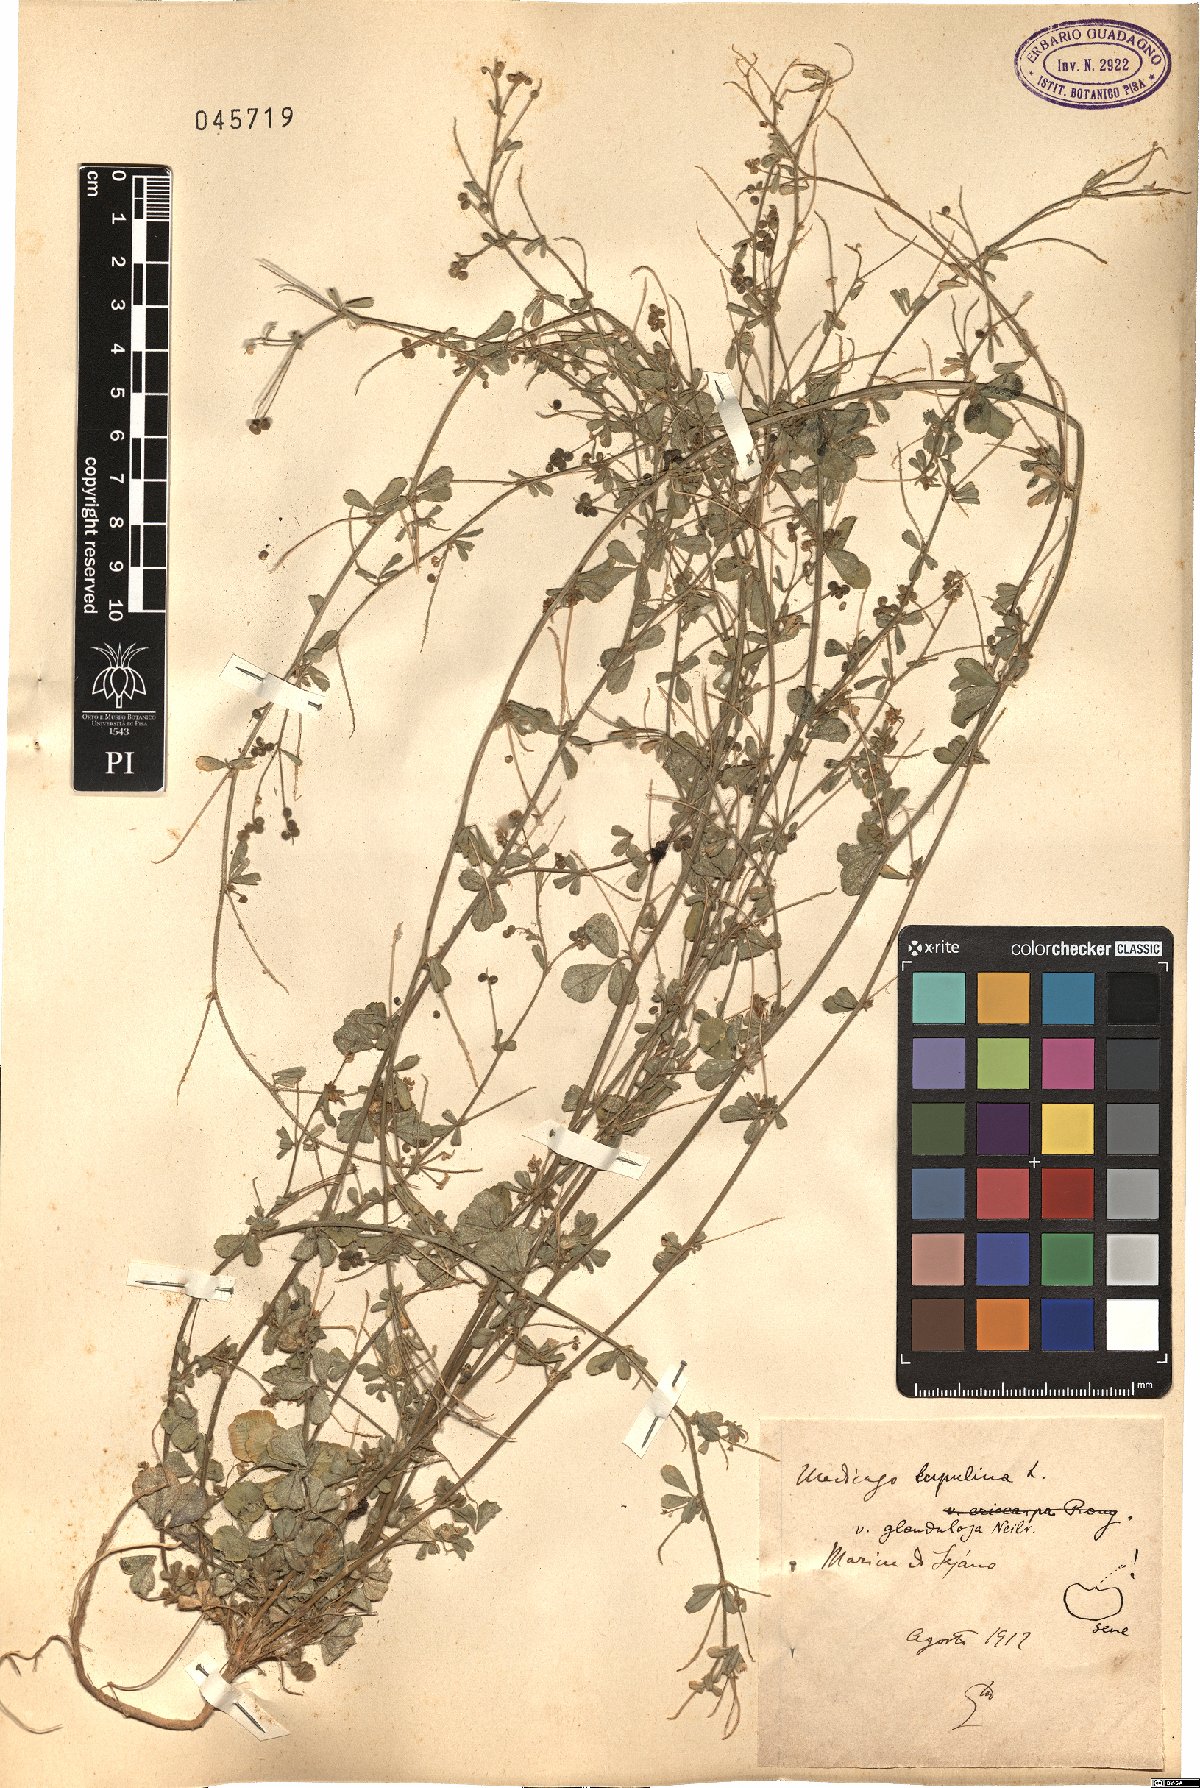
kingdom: Plantae
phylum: Tracheophyta
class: Magnoliopsida
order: Fabales
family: Fabaceae
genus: Medicago
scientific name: Medicago lupulina
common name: Black medick
